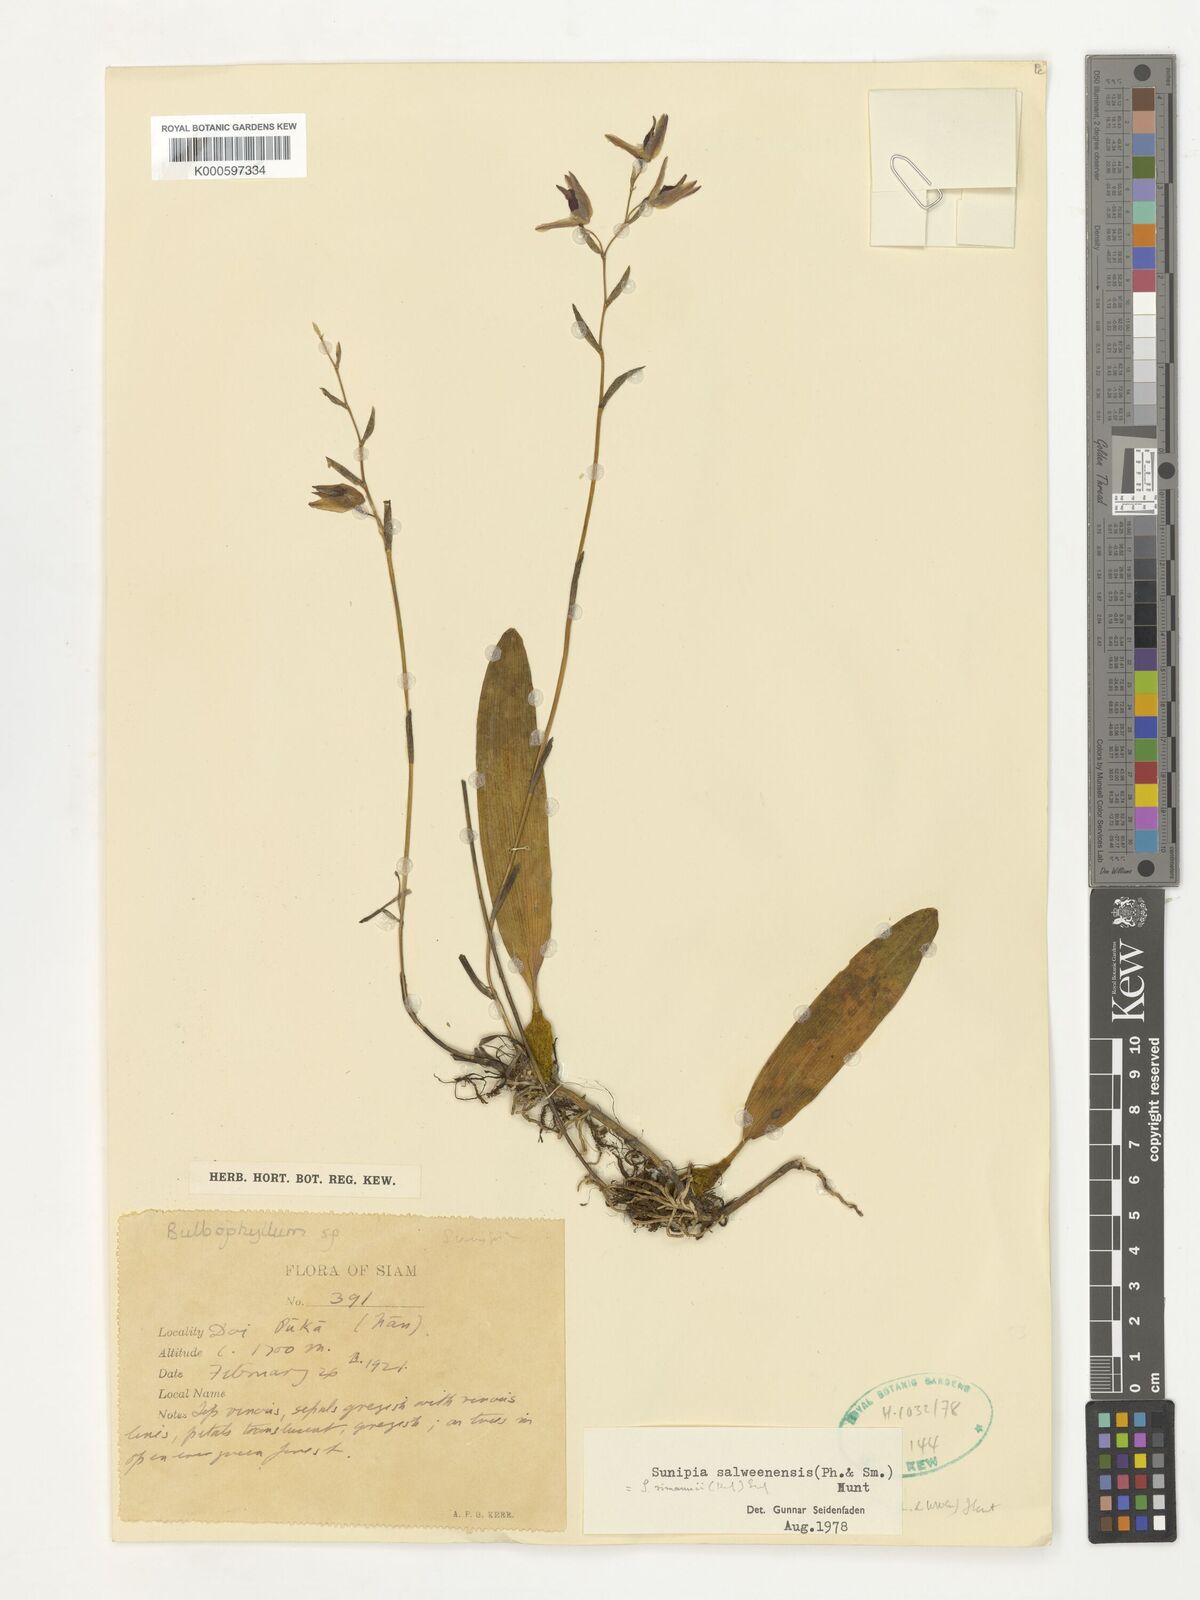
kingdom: Plantae
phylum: Tracheophyta
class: Liliopsida
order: Asparagales
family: Orchidaceae
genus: Bulbophyllum
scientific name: Bulbophyllum rimannii
